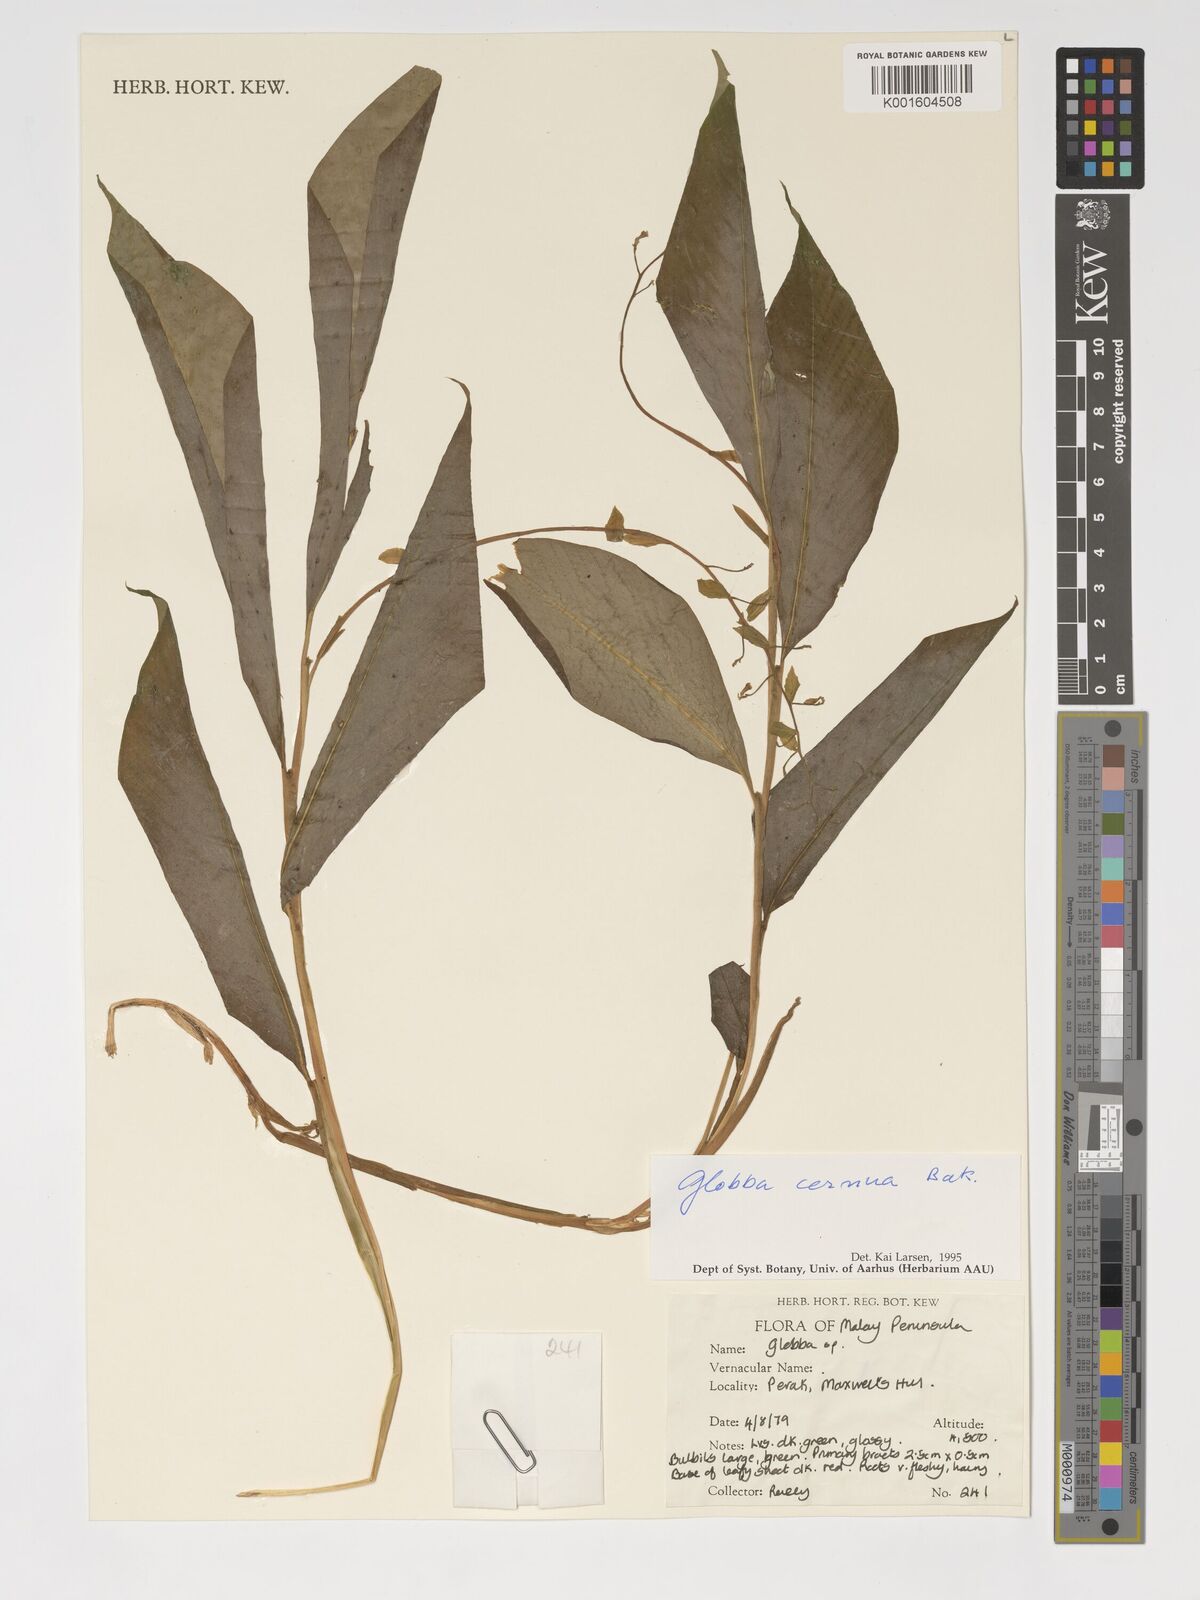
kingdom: Plantae
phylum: Tracheophyta
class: Liliopsida
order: Zingiberales
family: Zingiberaceae
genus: Globba
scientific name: Globba cernua
